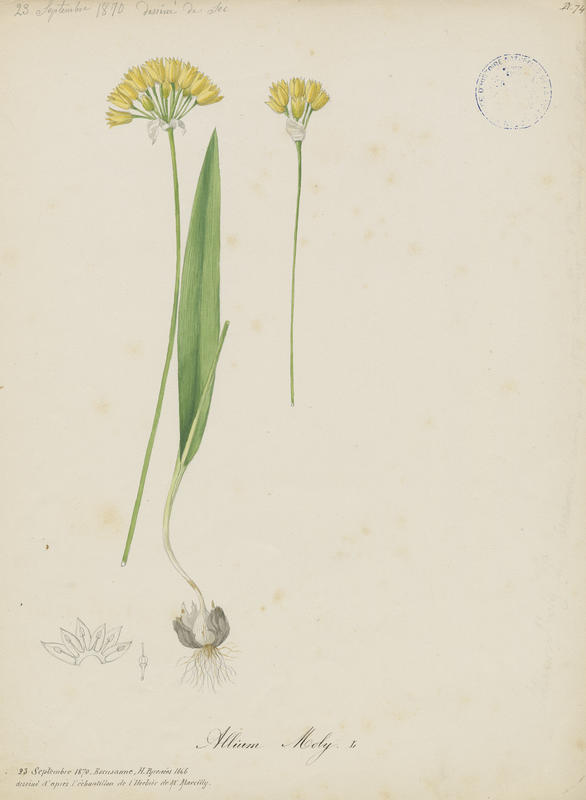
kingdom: Plantae
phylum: Tracheophyta
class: Liliopsida
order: Asparagales
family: Amaryllidaceae
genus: Allium
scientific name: Allium moly
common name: Yellow garlic
